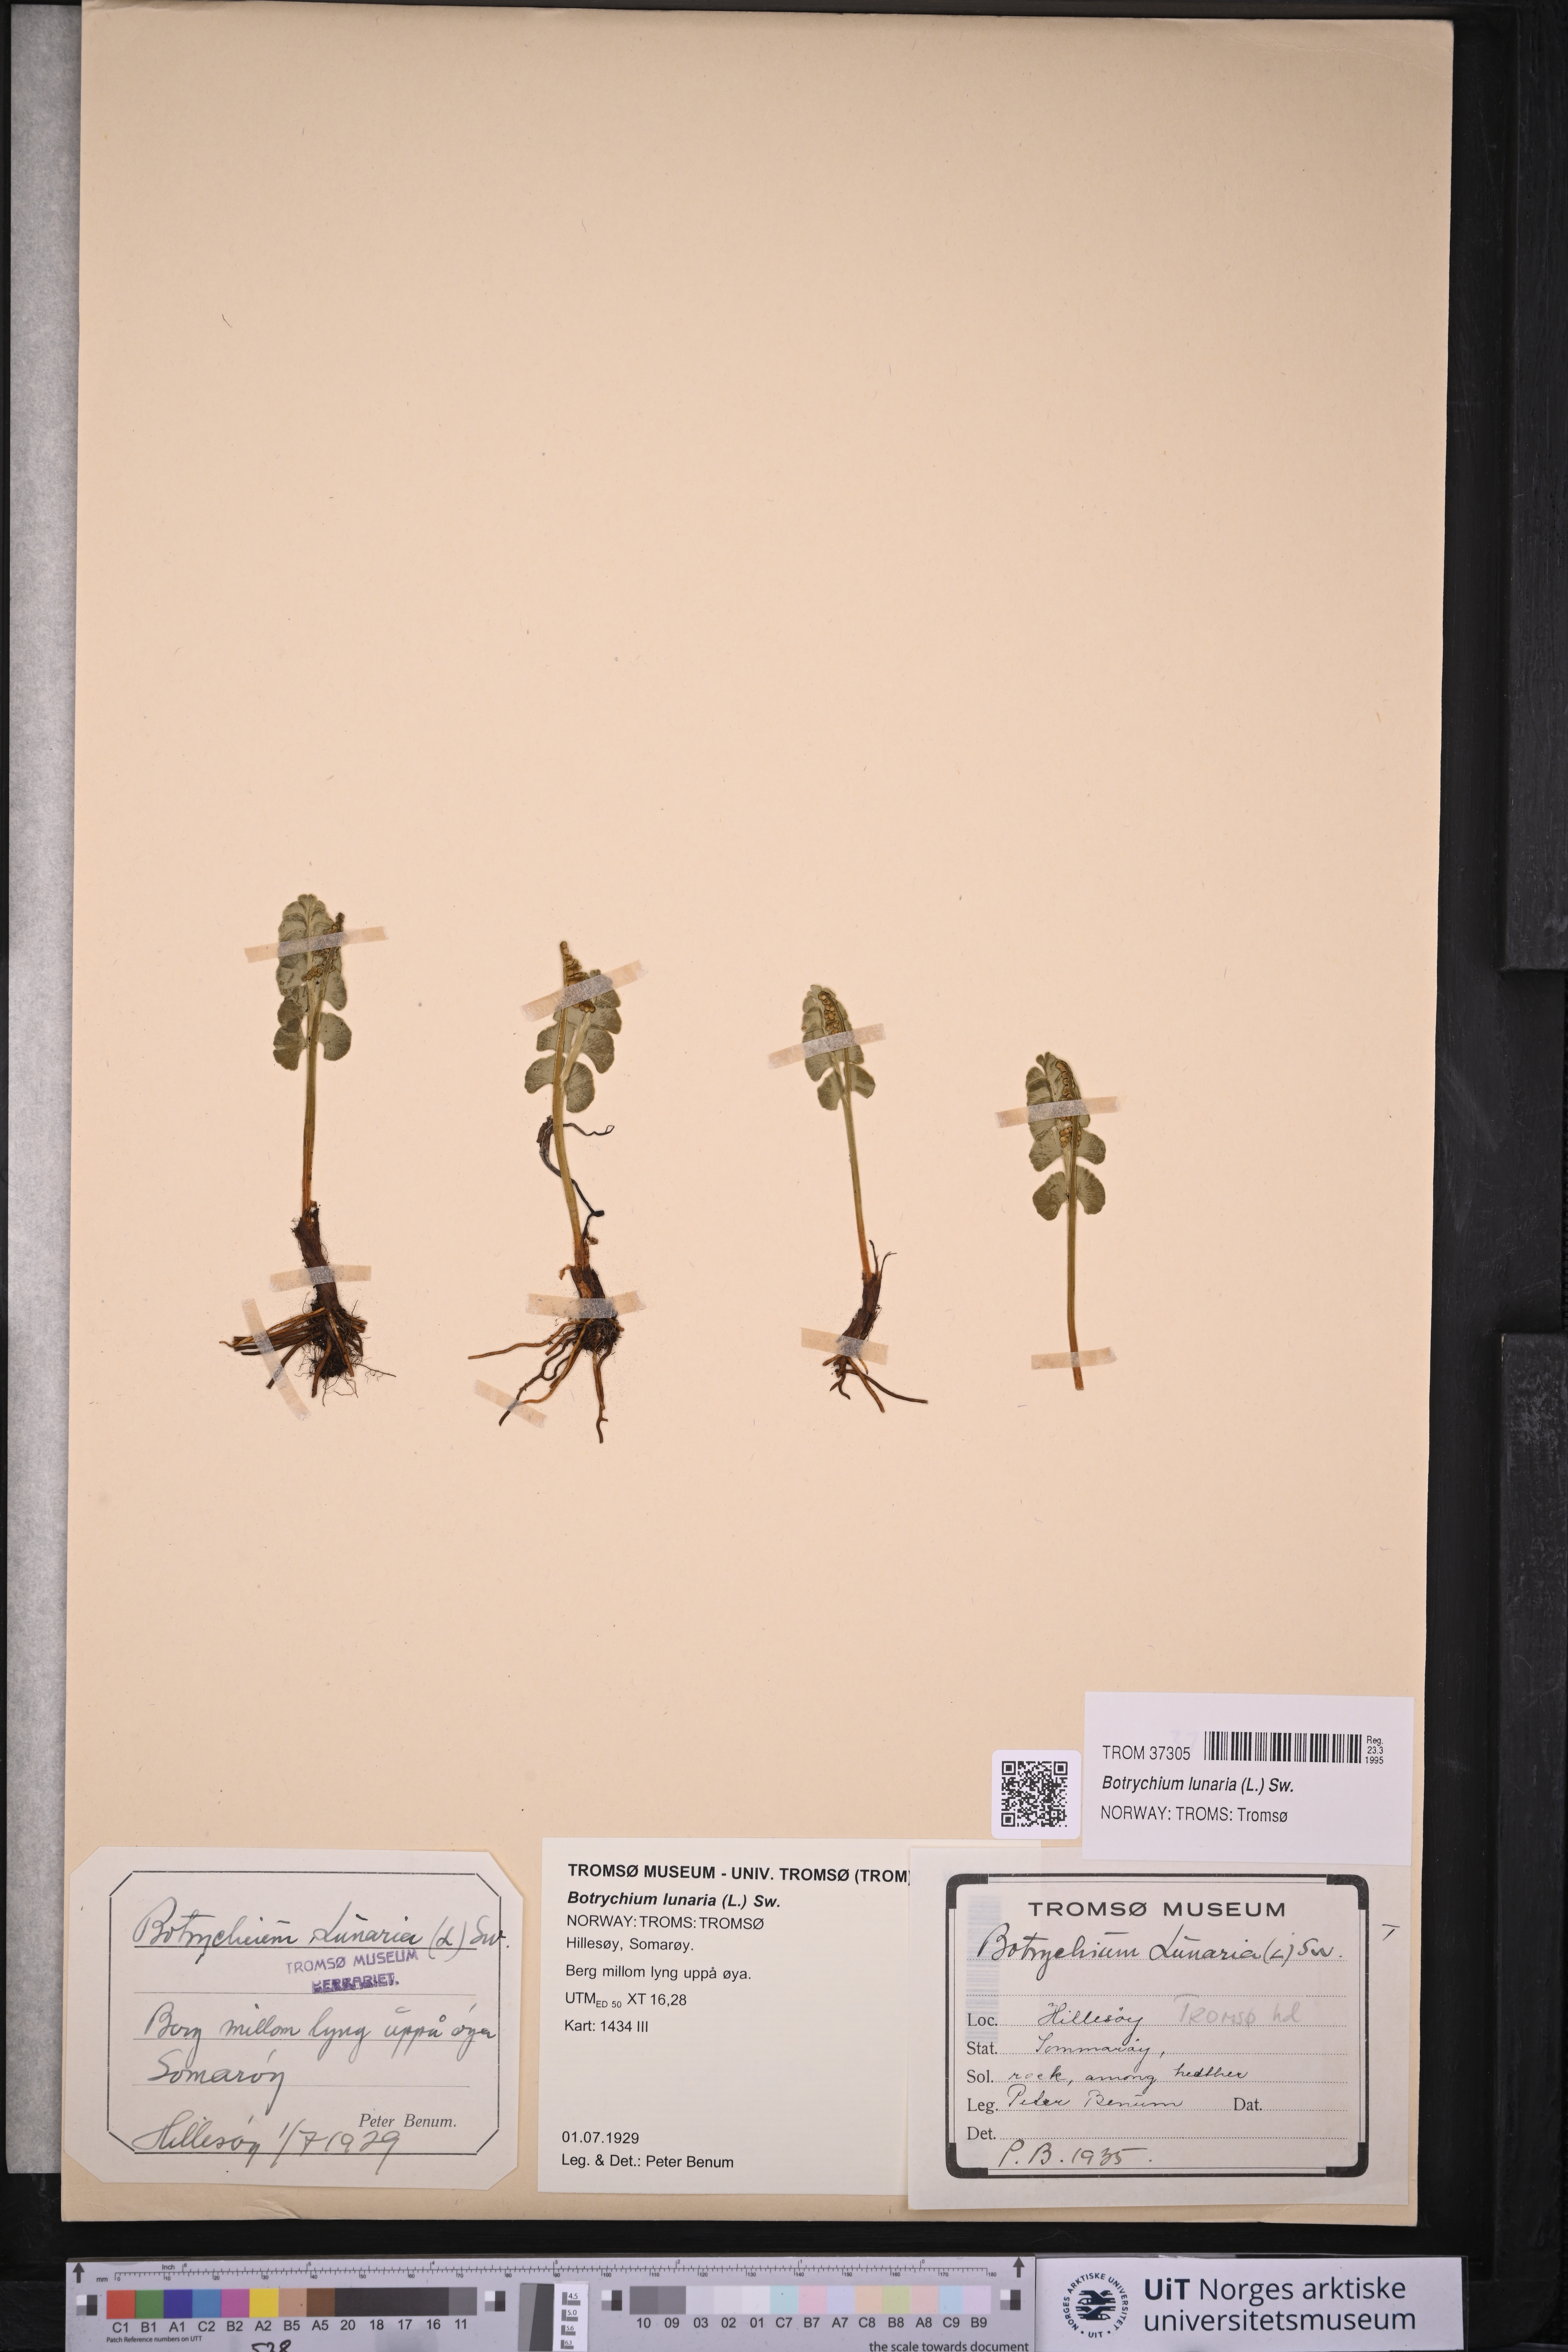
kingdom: Plantae
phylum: Tracheophyta
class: Polypodiopsida
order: Ophioglossales
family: Ophioglossaceae
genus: Botrychium
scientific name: Botrychium lunaria
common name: Moonwort
